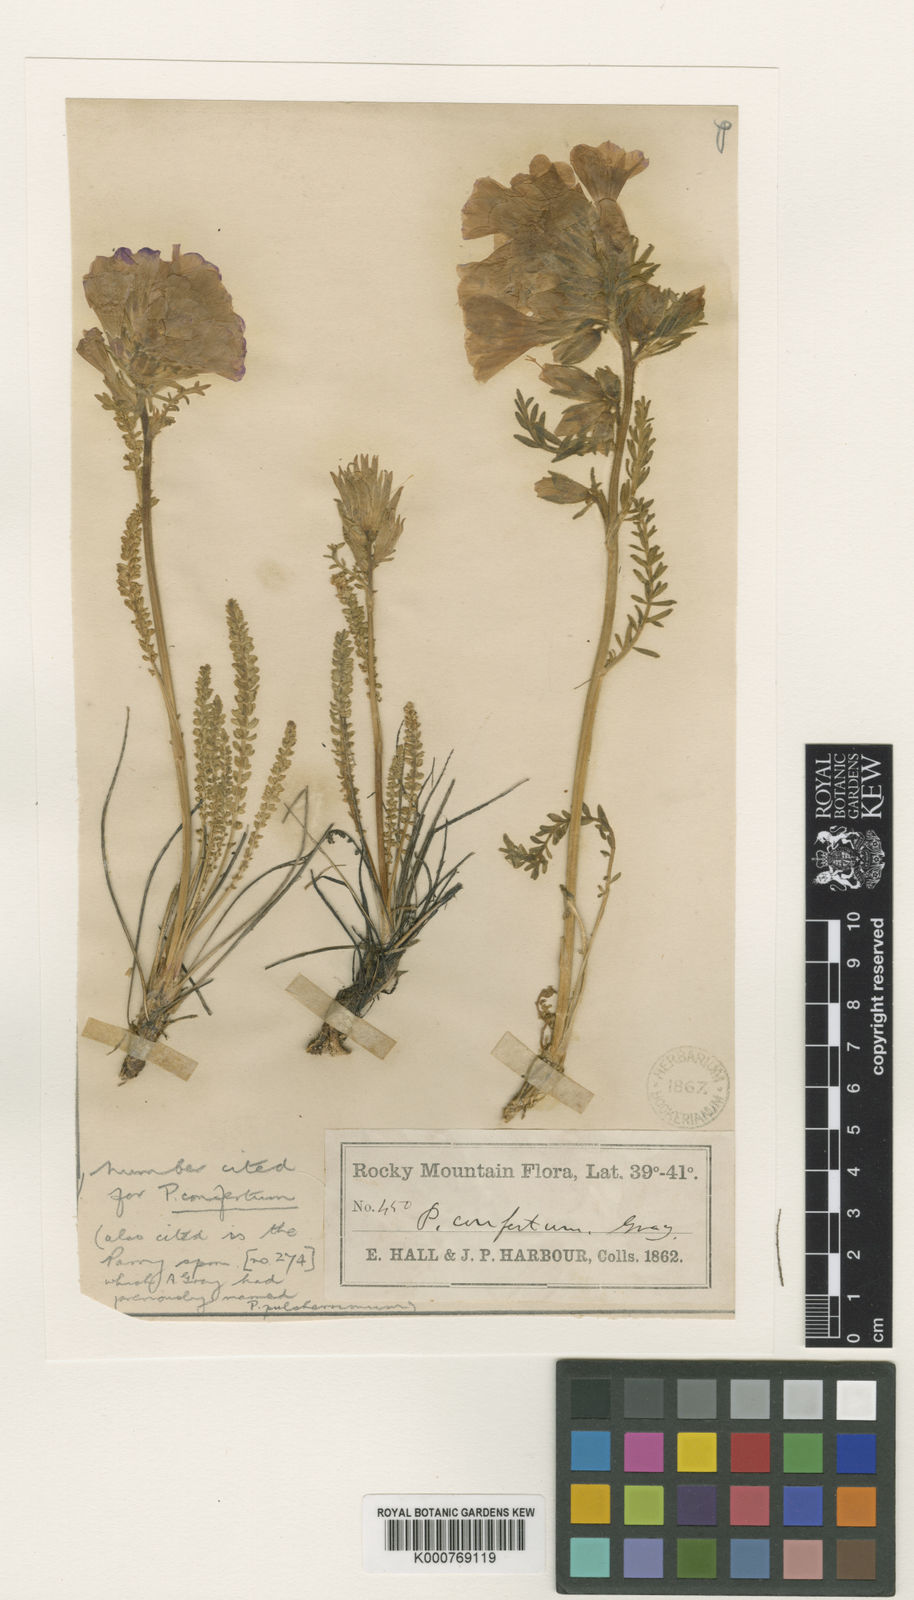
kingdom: Plantae
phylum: Tracheophyta
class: Magnoliopsida
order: Ericales
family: Polemoniaceae
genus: Polemonium
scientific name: Polemonium viscosum
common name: Skunk jacob's-ladder
